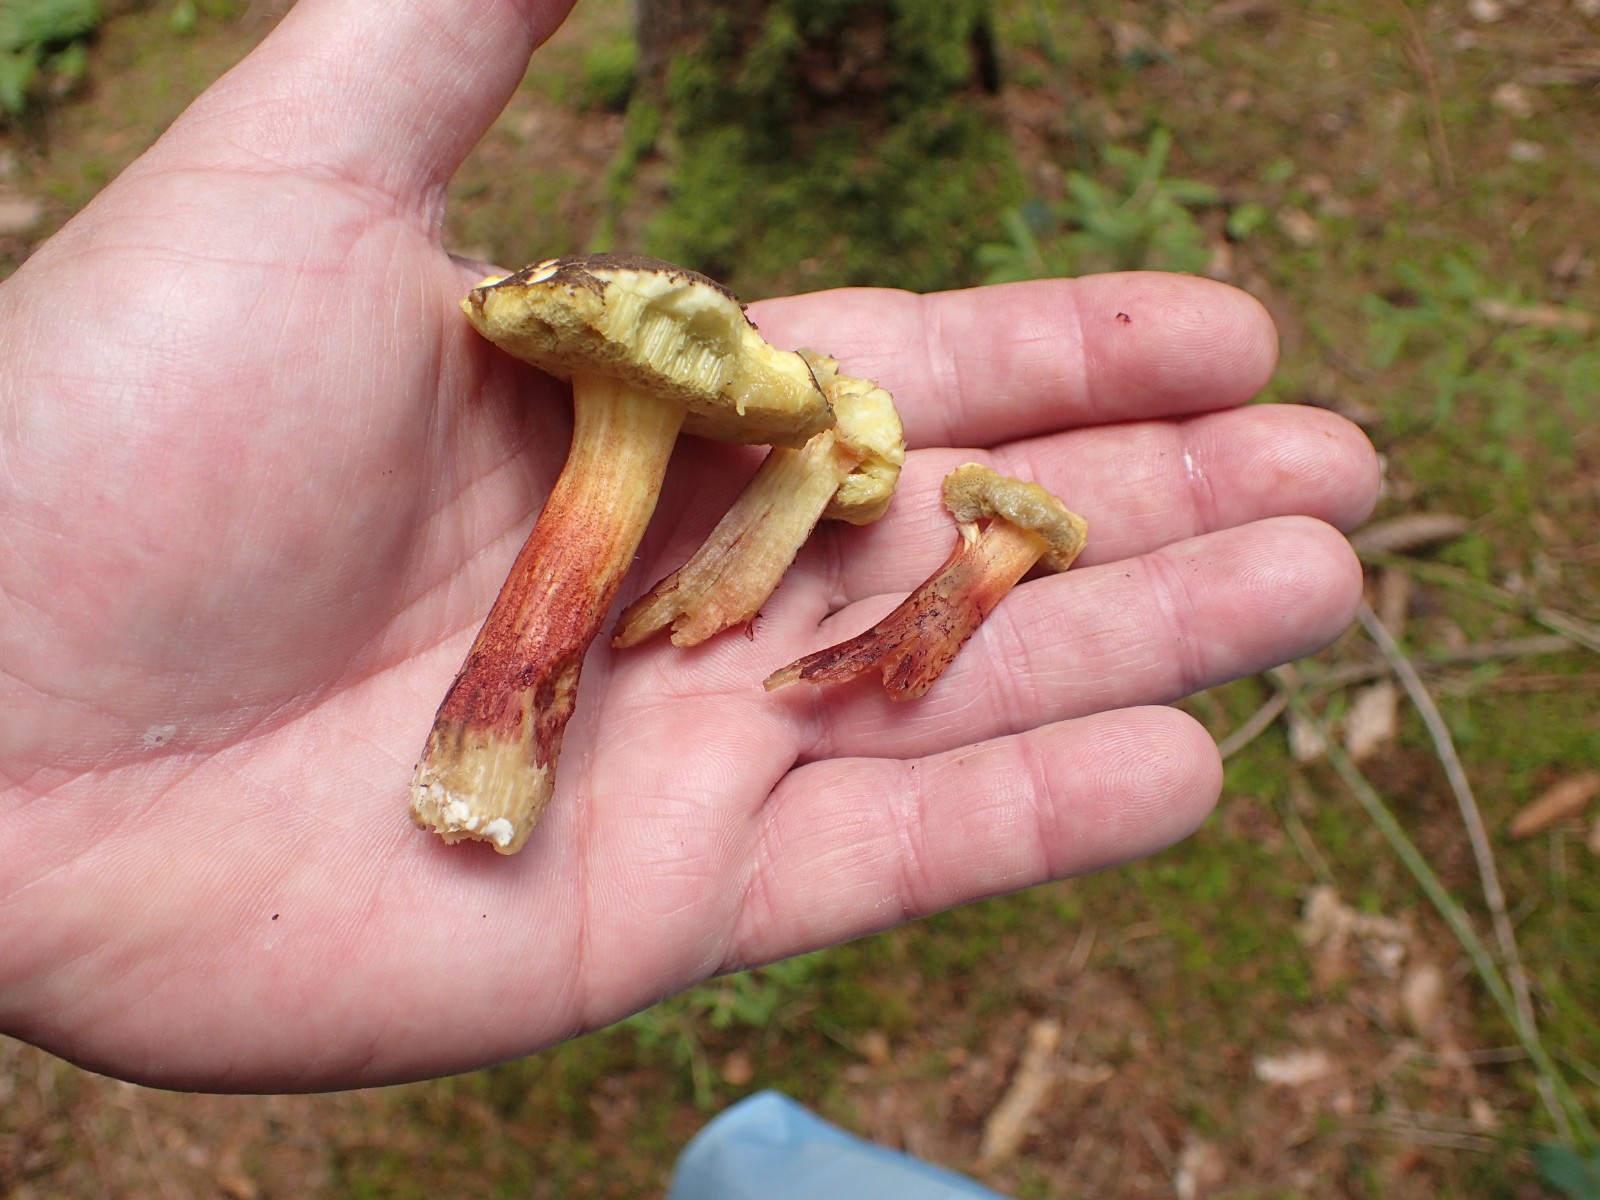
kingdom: Fungi
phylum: Basidiomycota
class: Agaricomycetes
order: Boletales
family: Boletaceae
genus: Xerocomellus
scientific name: Xerocomellus cisalpinus
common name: finsprukken rørhat
